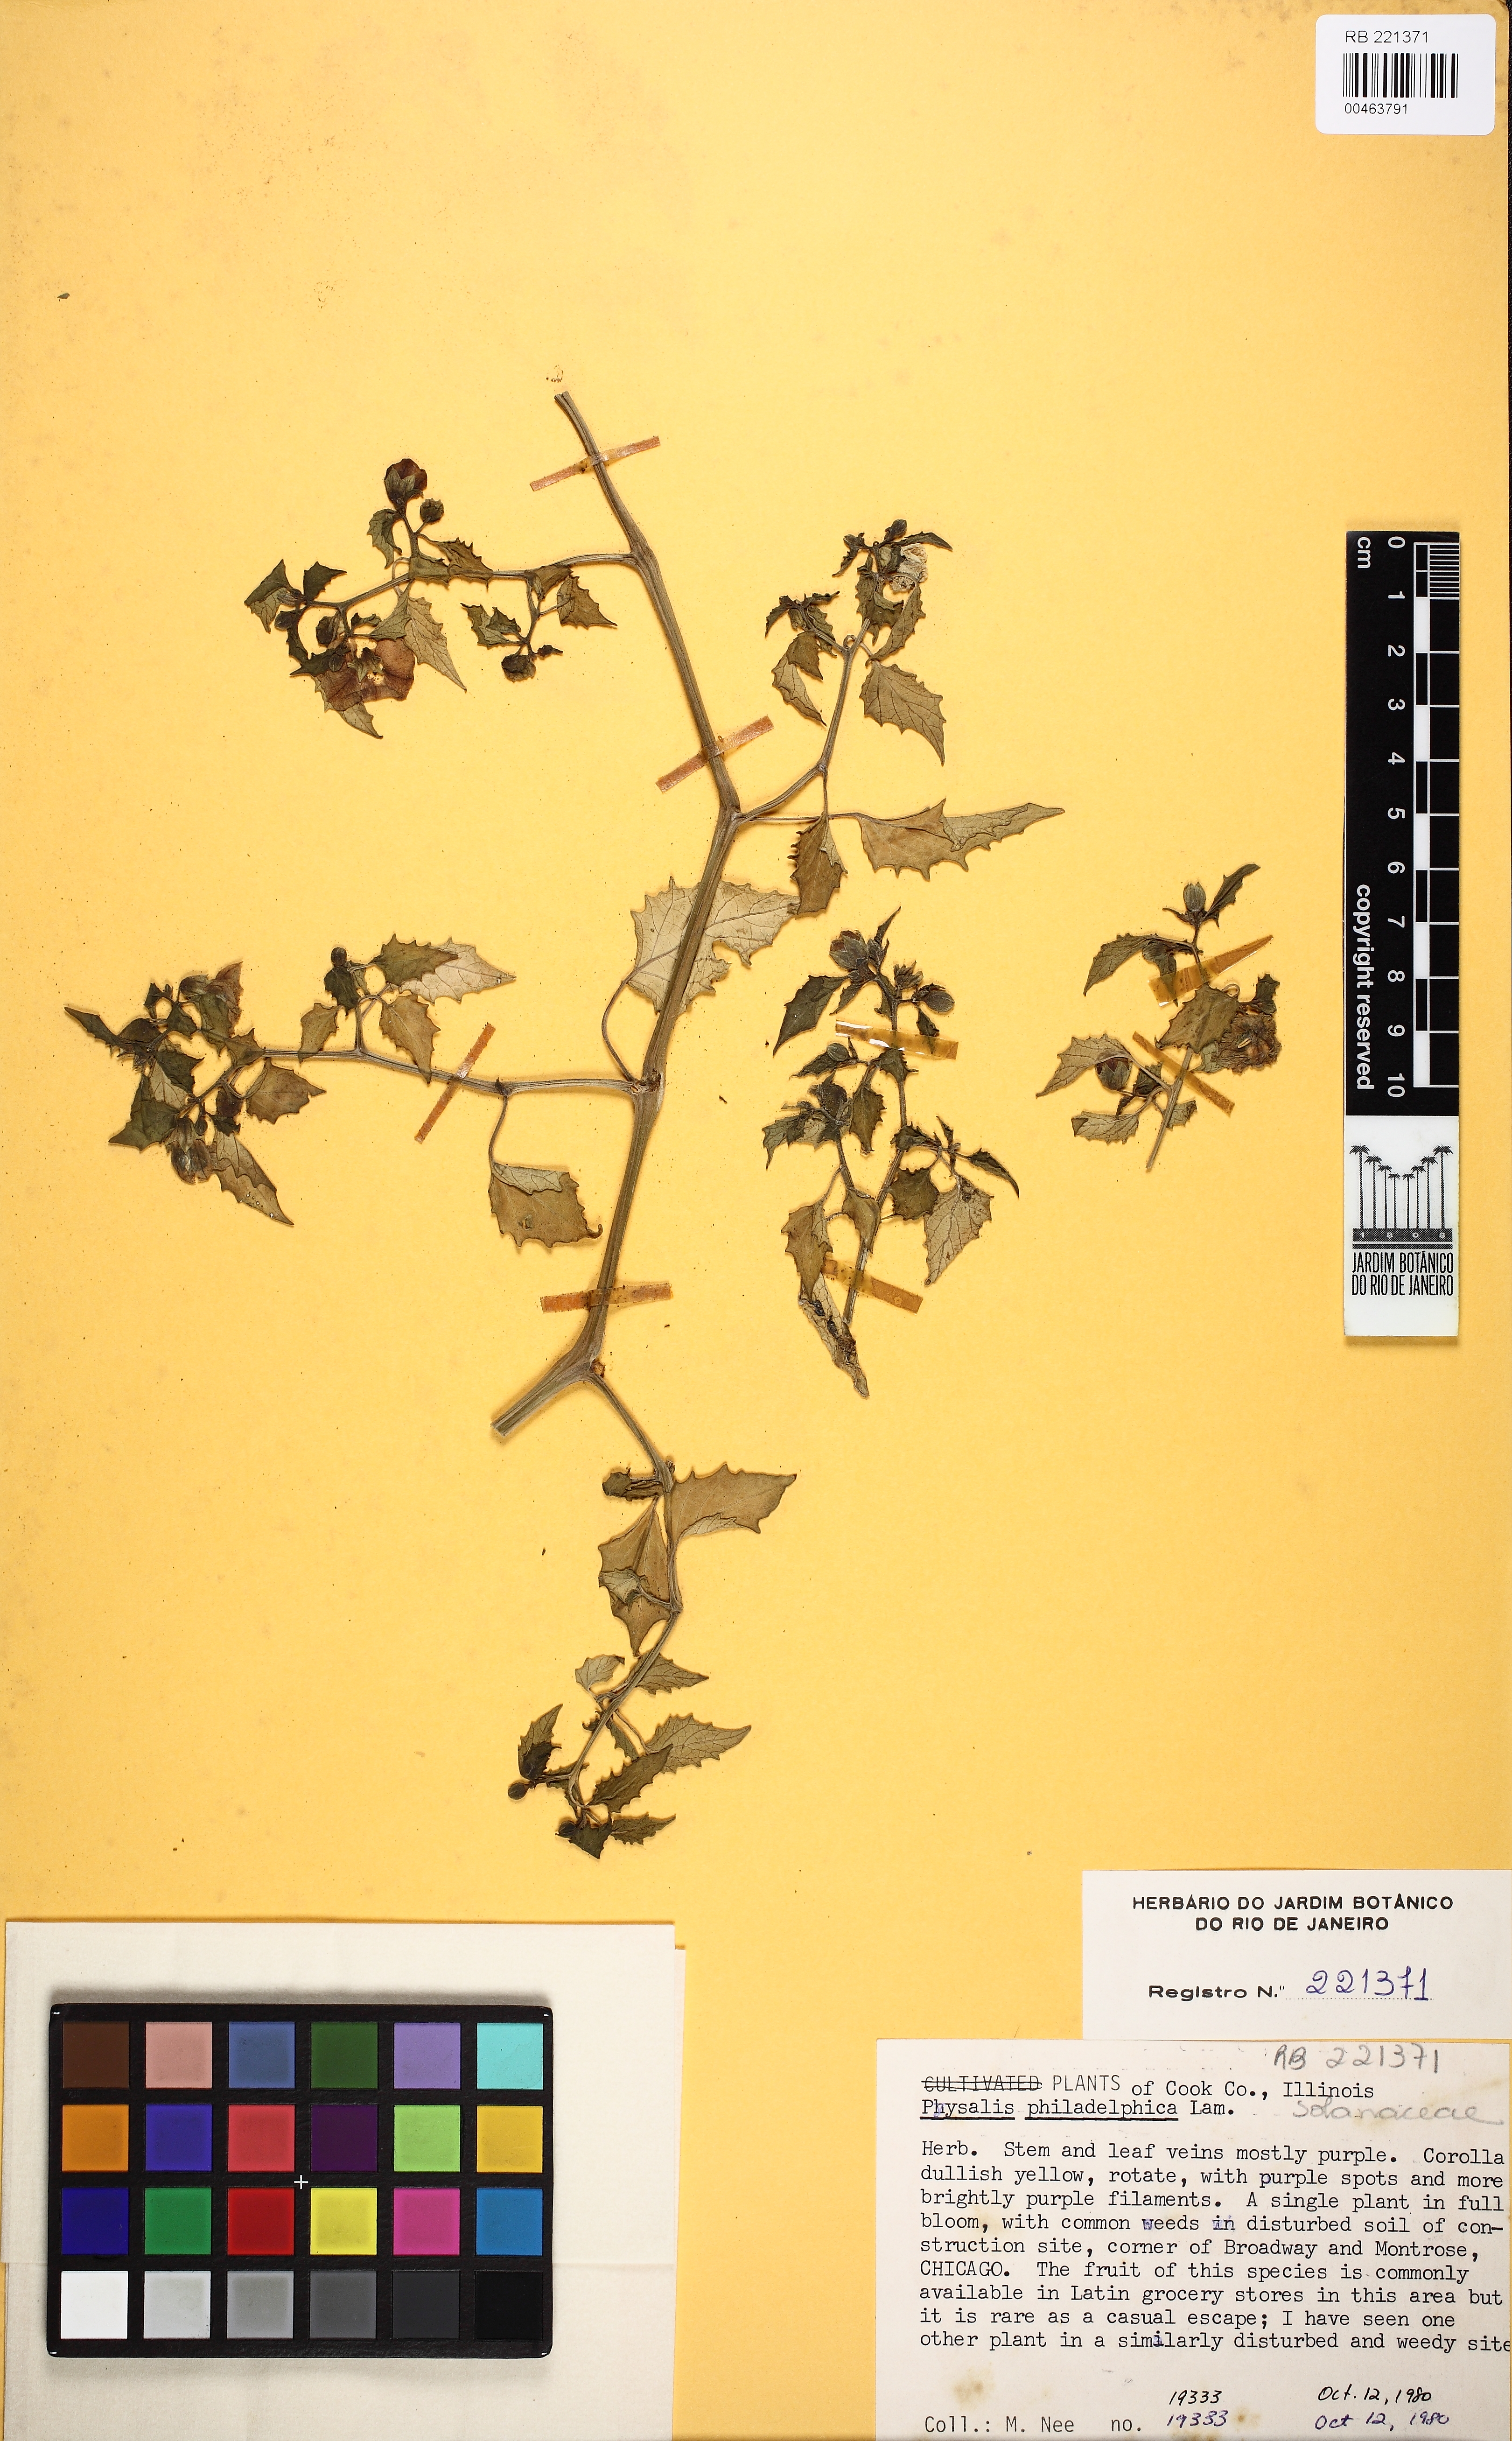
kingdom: Plantae
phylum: Tracheophyta
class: Magnoliopsida
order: Solanales
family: Solanaceae
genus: Physalis
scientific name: Physalis philadelphica
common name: Husk-tomato
